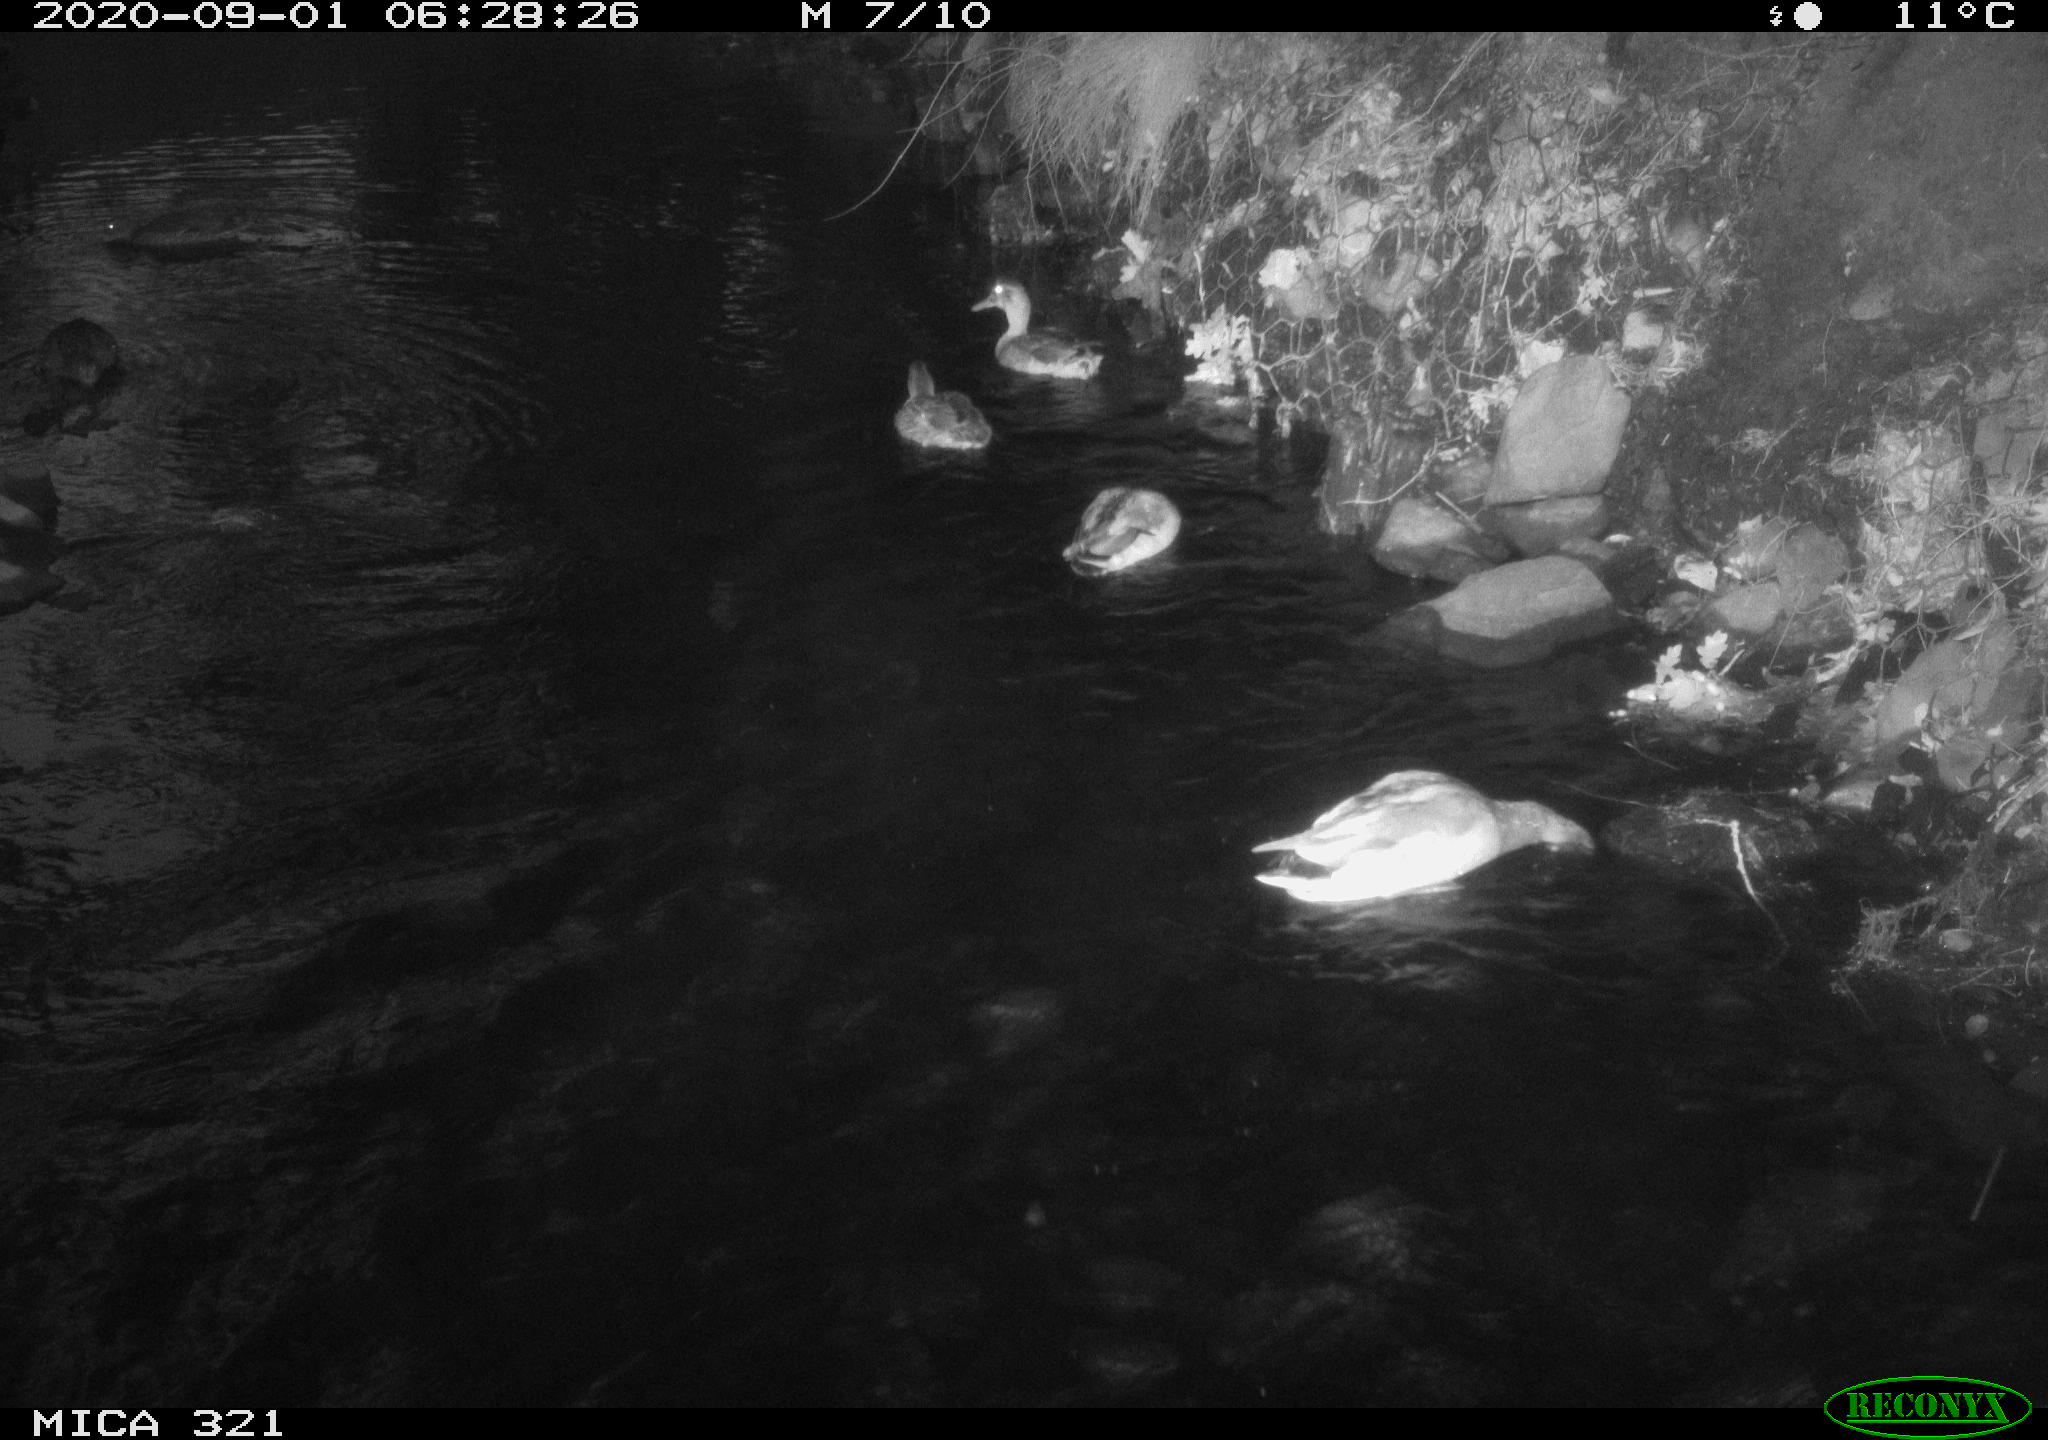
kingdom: Animalia
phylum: Chordata
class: Aves
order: Anseriformes
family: Anatidae
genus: Anas
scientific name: Anas platyrhynchos
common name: Mallard
